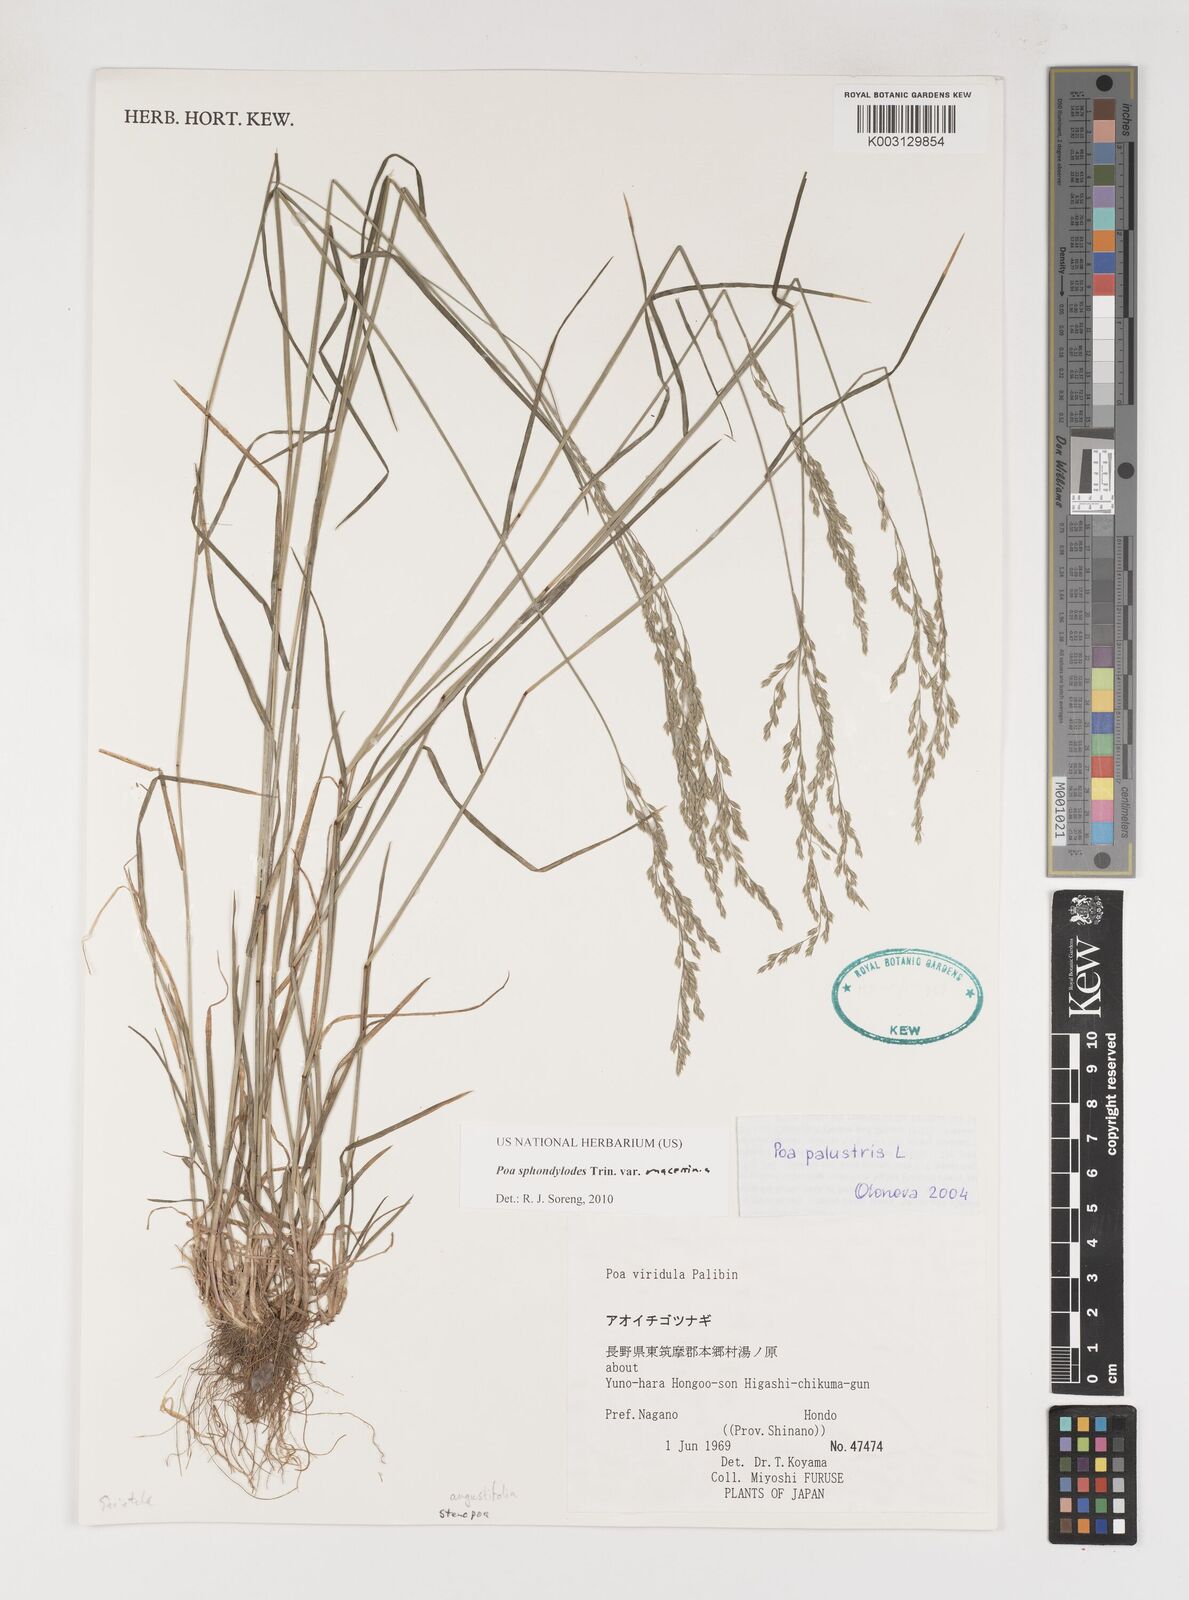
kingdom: Plantae
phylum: Tracheophyta
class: Liliopsida
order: Poales
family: Poaceae
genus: Poa
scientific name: Poa sphondylodes
